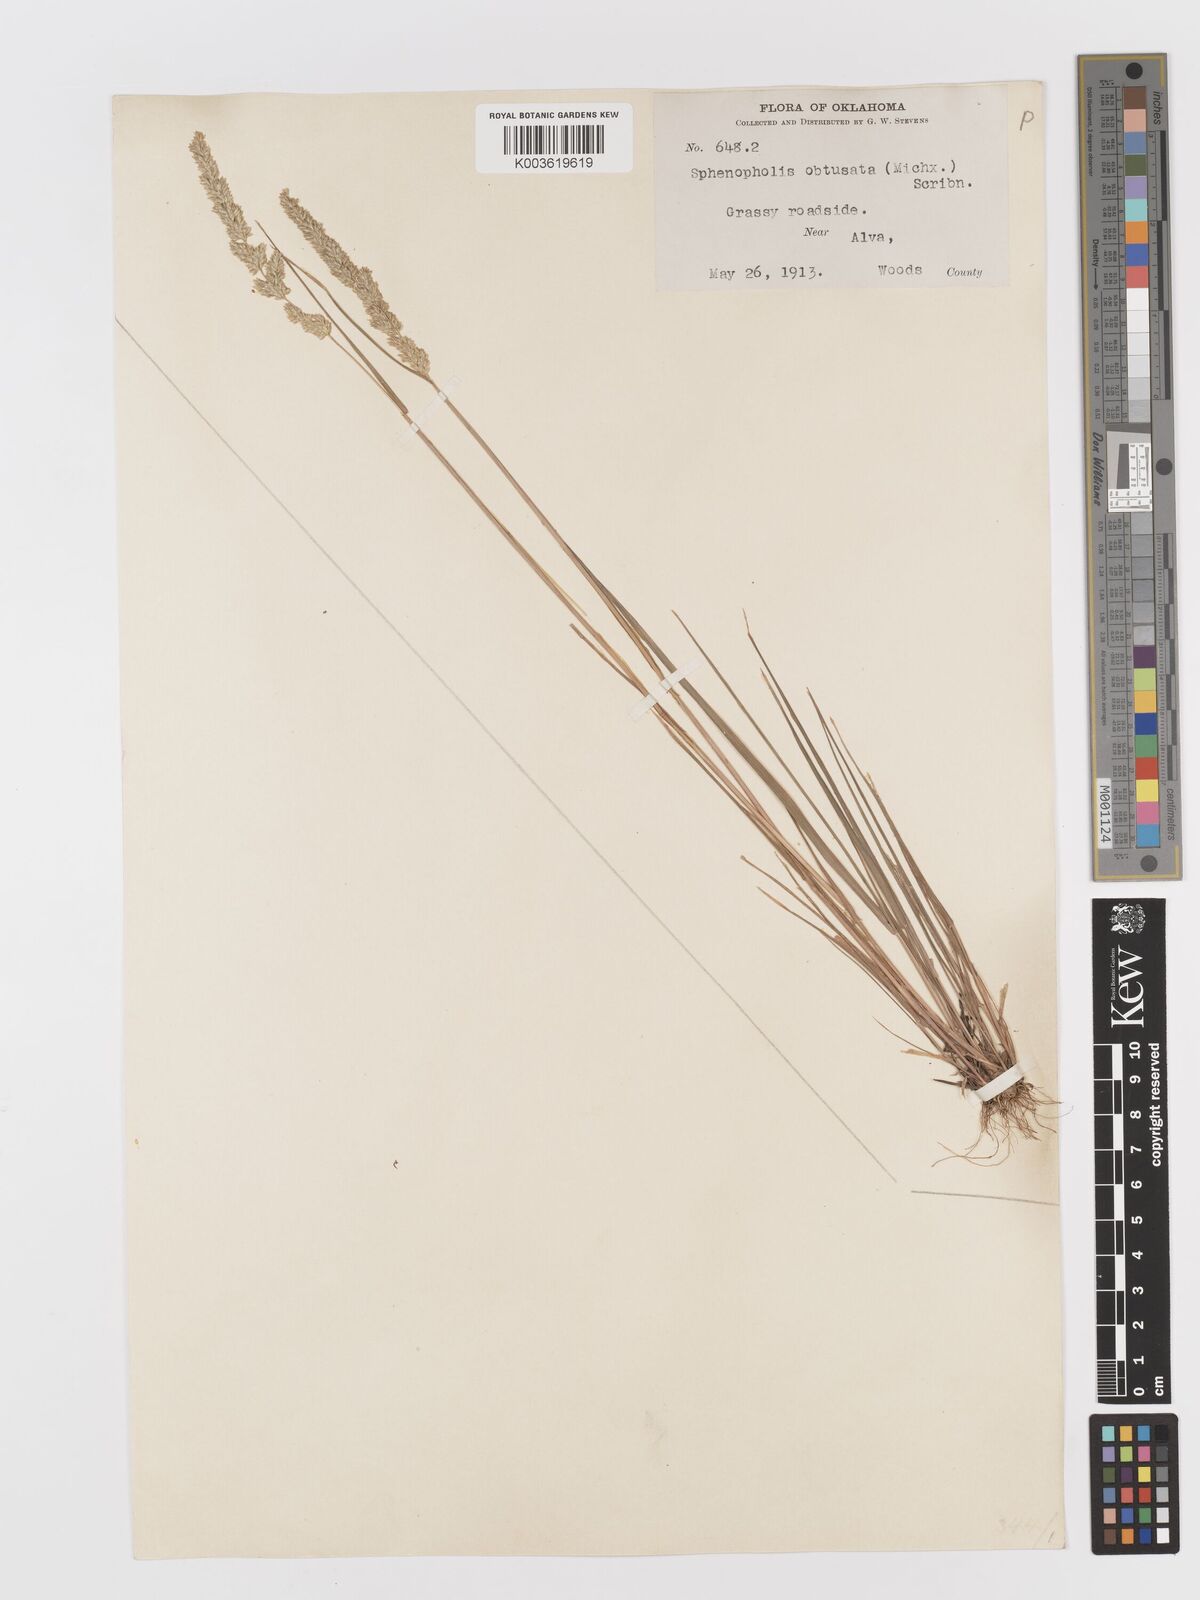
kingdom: Plantae
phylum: Tracheophyta
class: Liliopsida
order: Poales
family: Poaceae
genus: Sphenopholis
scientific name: Sphenopholis obtusata
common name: Prairie grass
